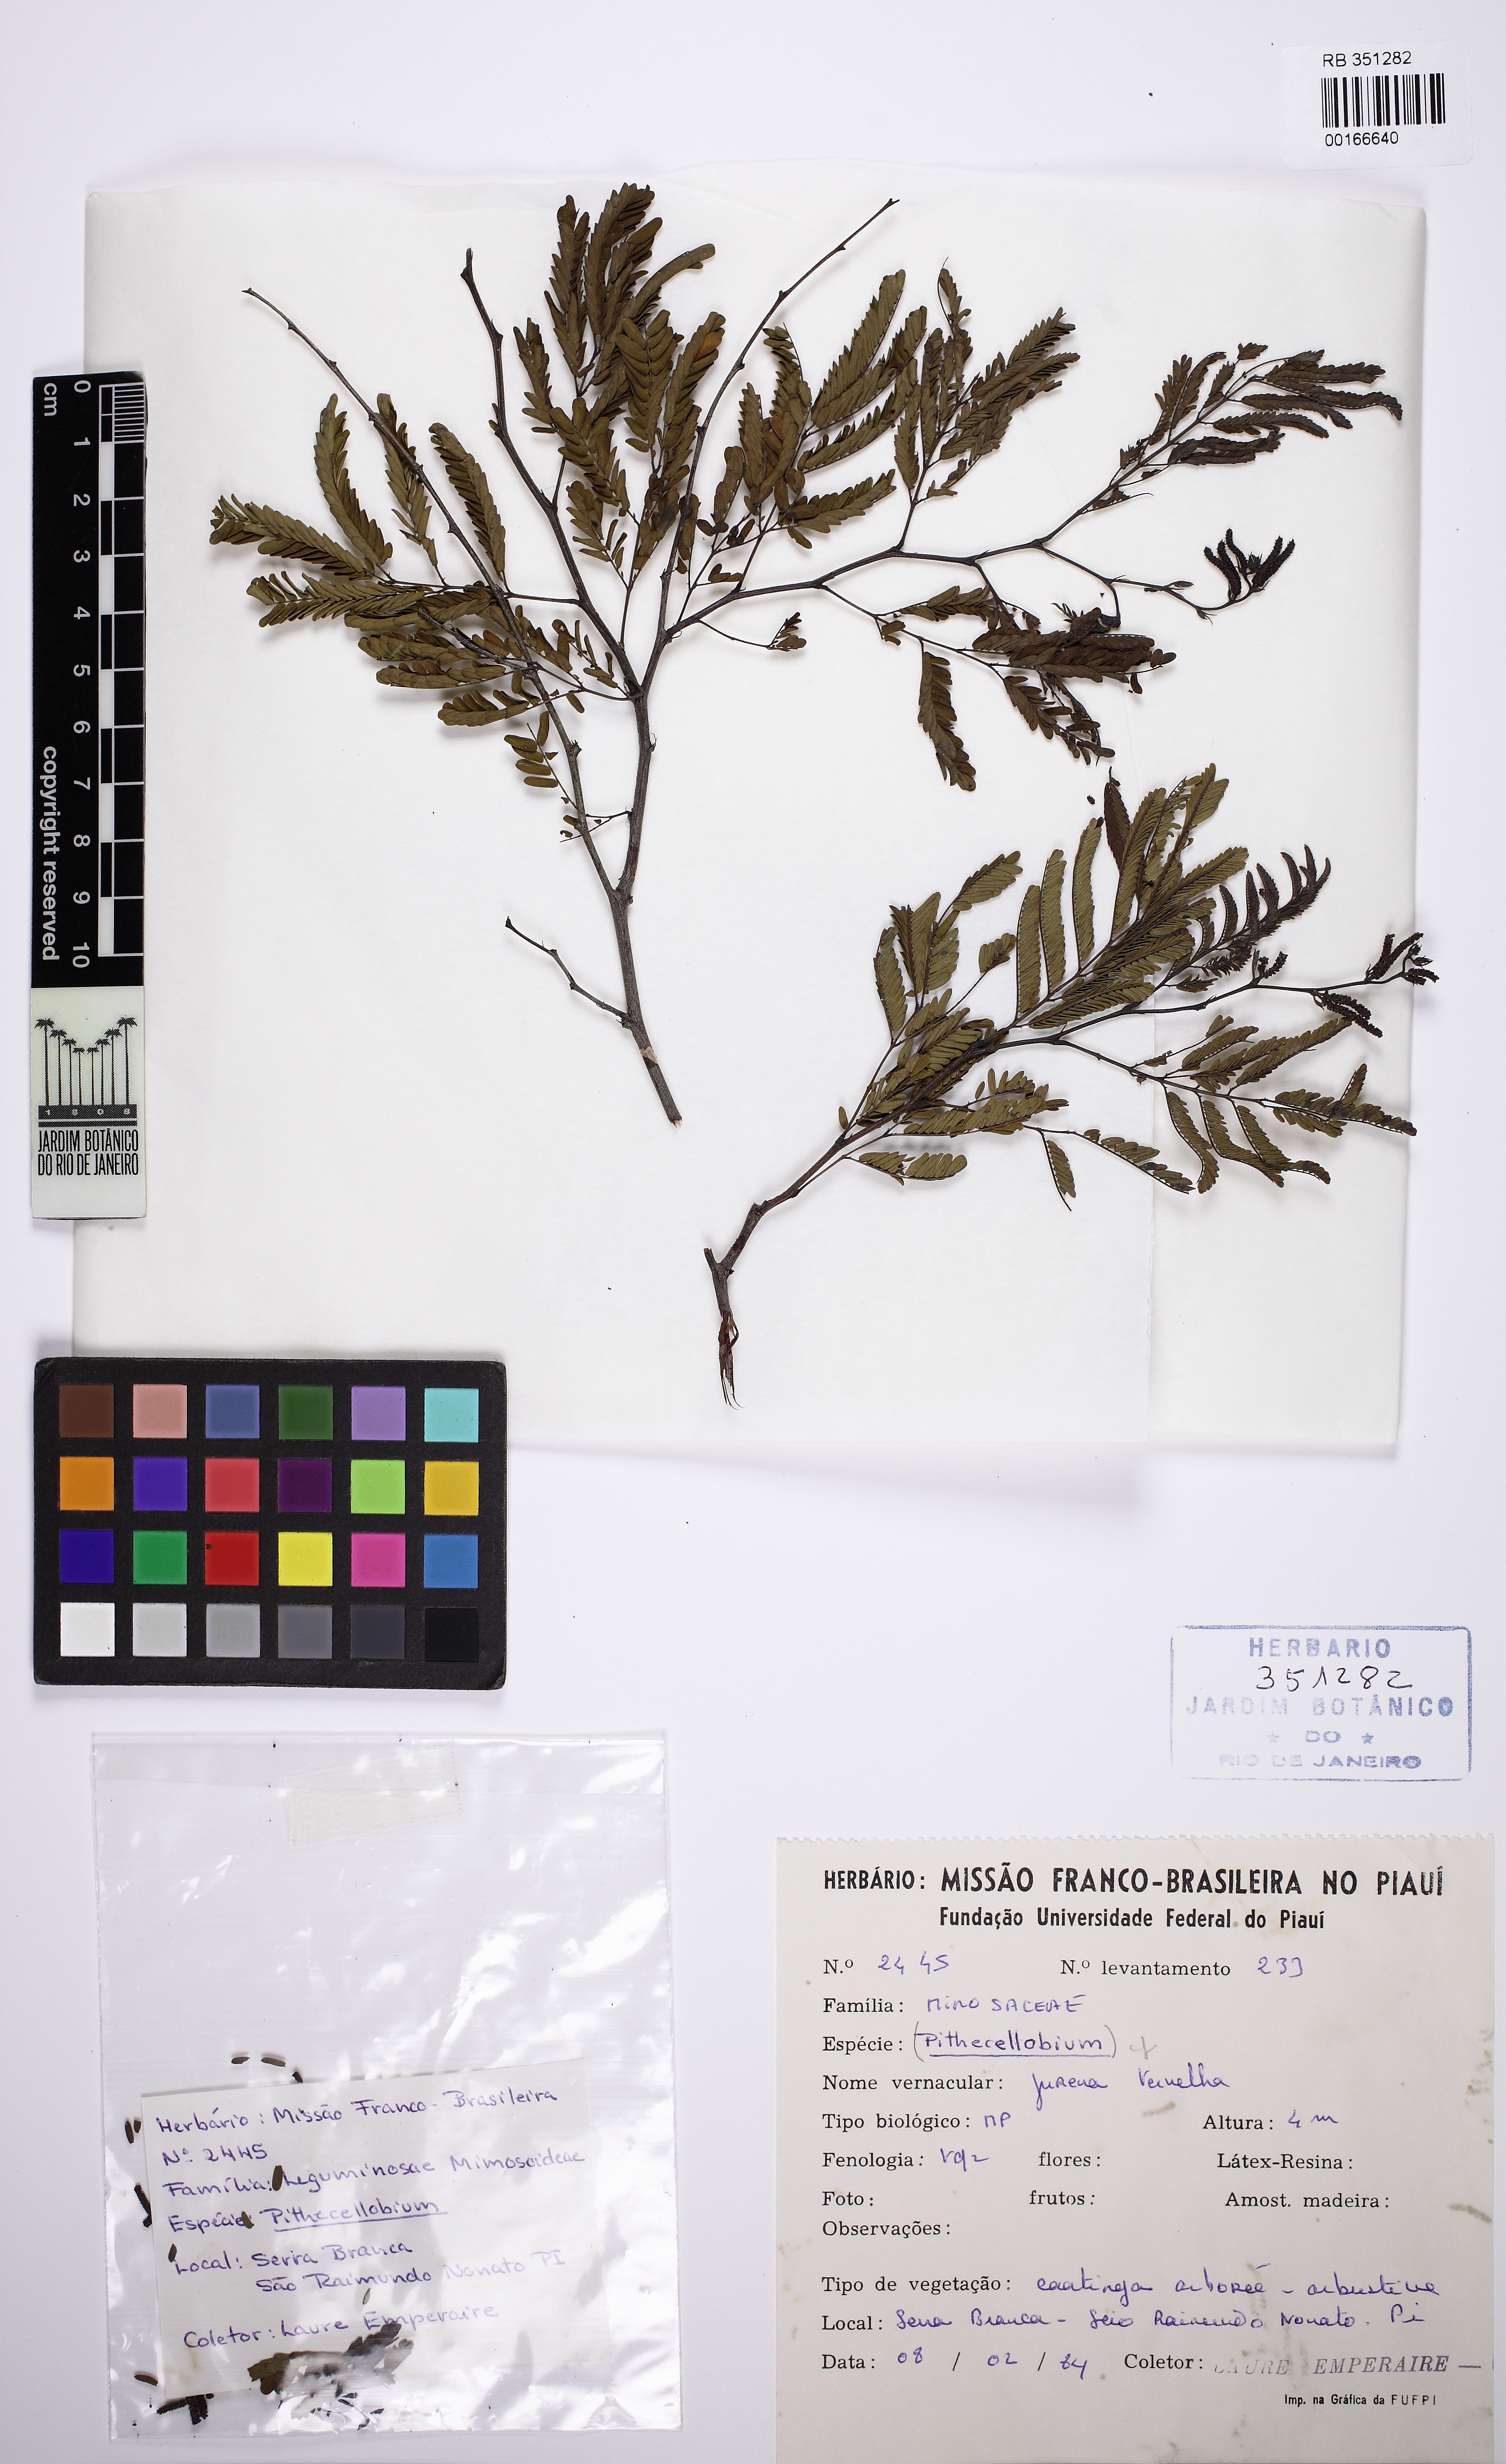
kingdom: Plantae
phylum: Tracheophyta
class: Magnoliopsida
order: Fabales
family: Fabaceae
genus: Mimosa
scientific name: Mimosa
